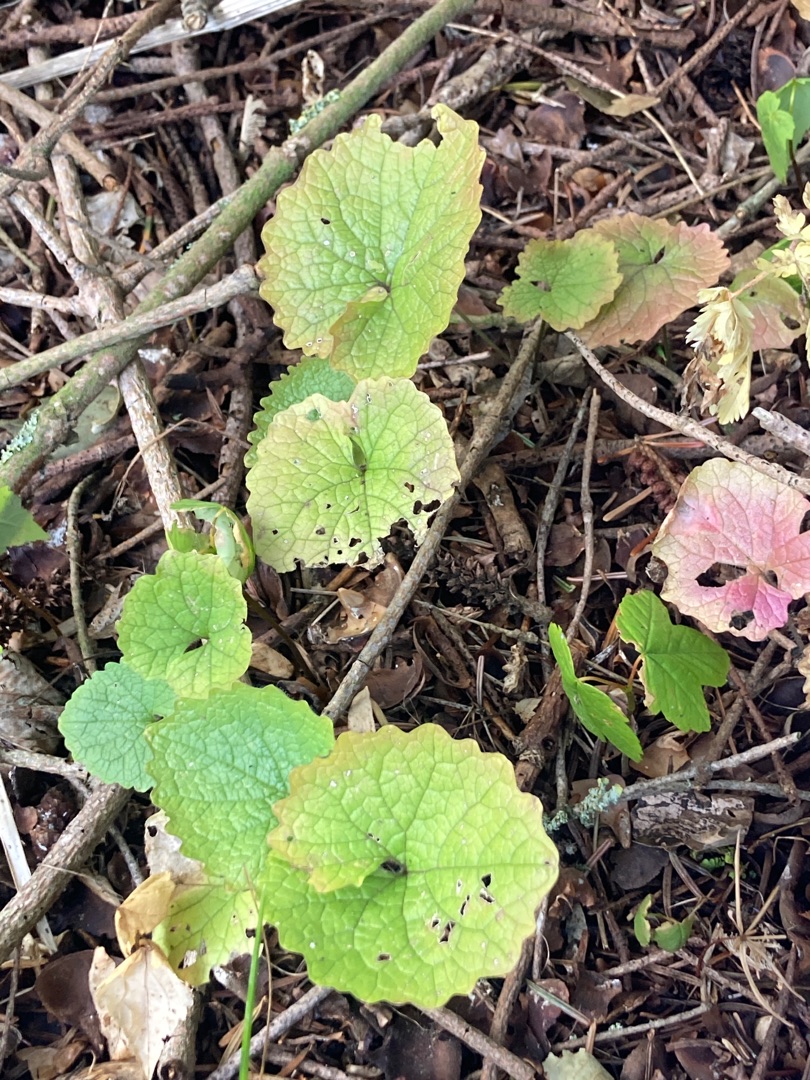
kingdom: Plantae
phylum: Tracheophyta
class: Magnoliopsida
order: Brassicales
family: Brassicaceae
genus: Alliaria
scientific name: Alliaria petiolata
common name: Løgkarse
